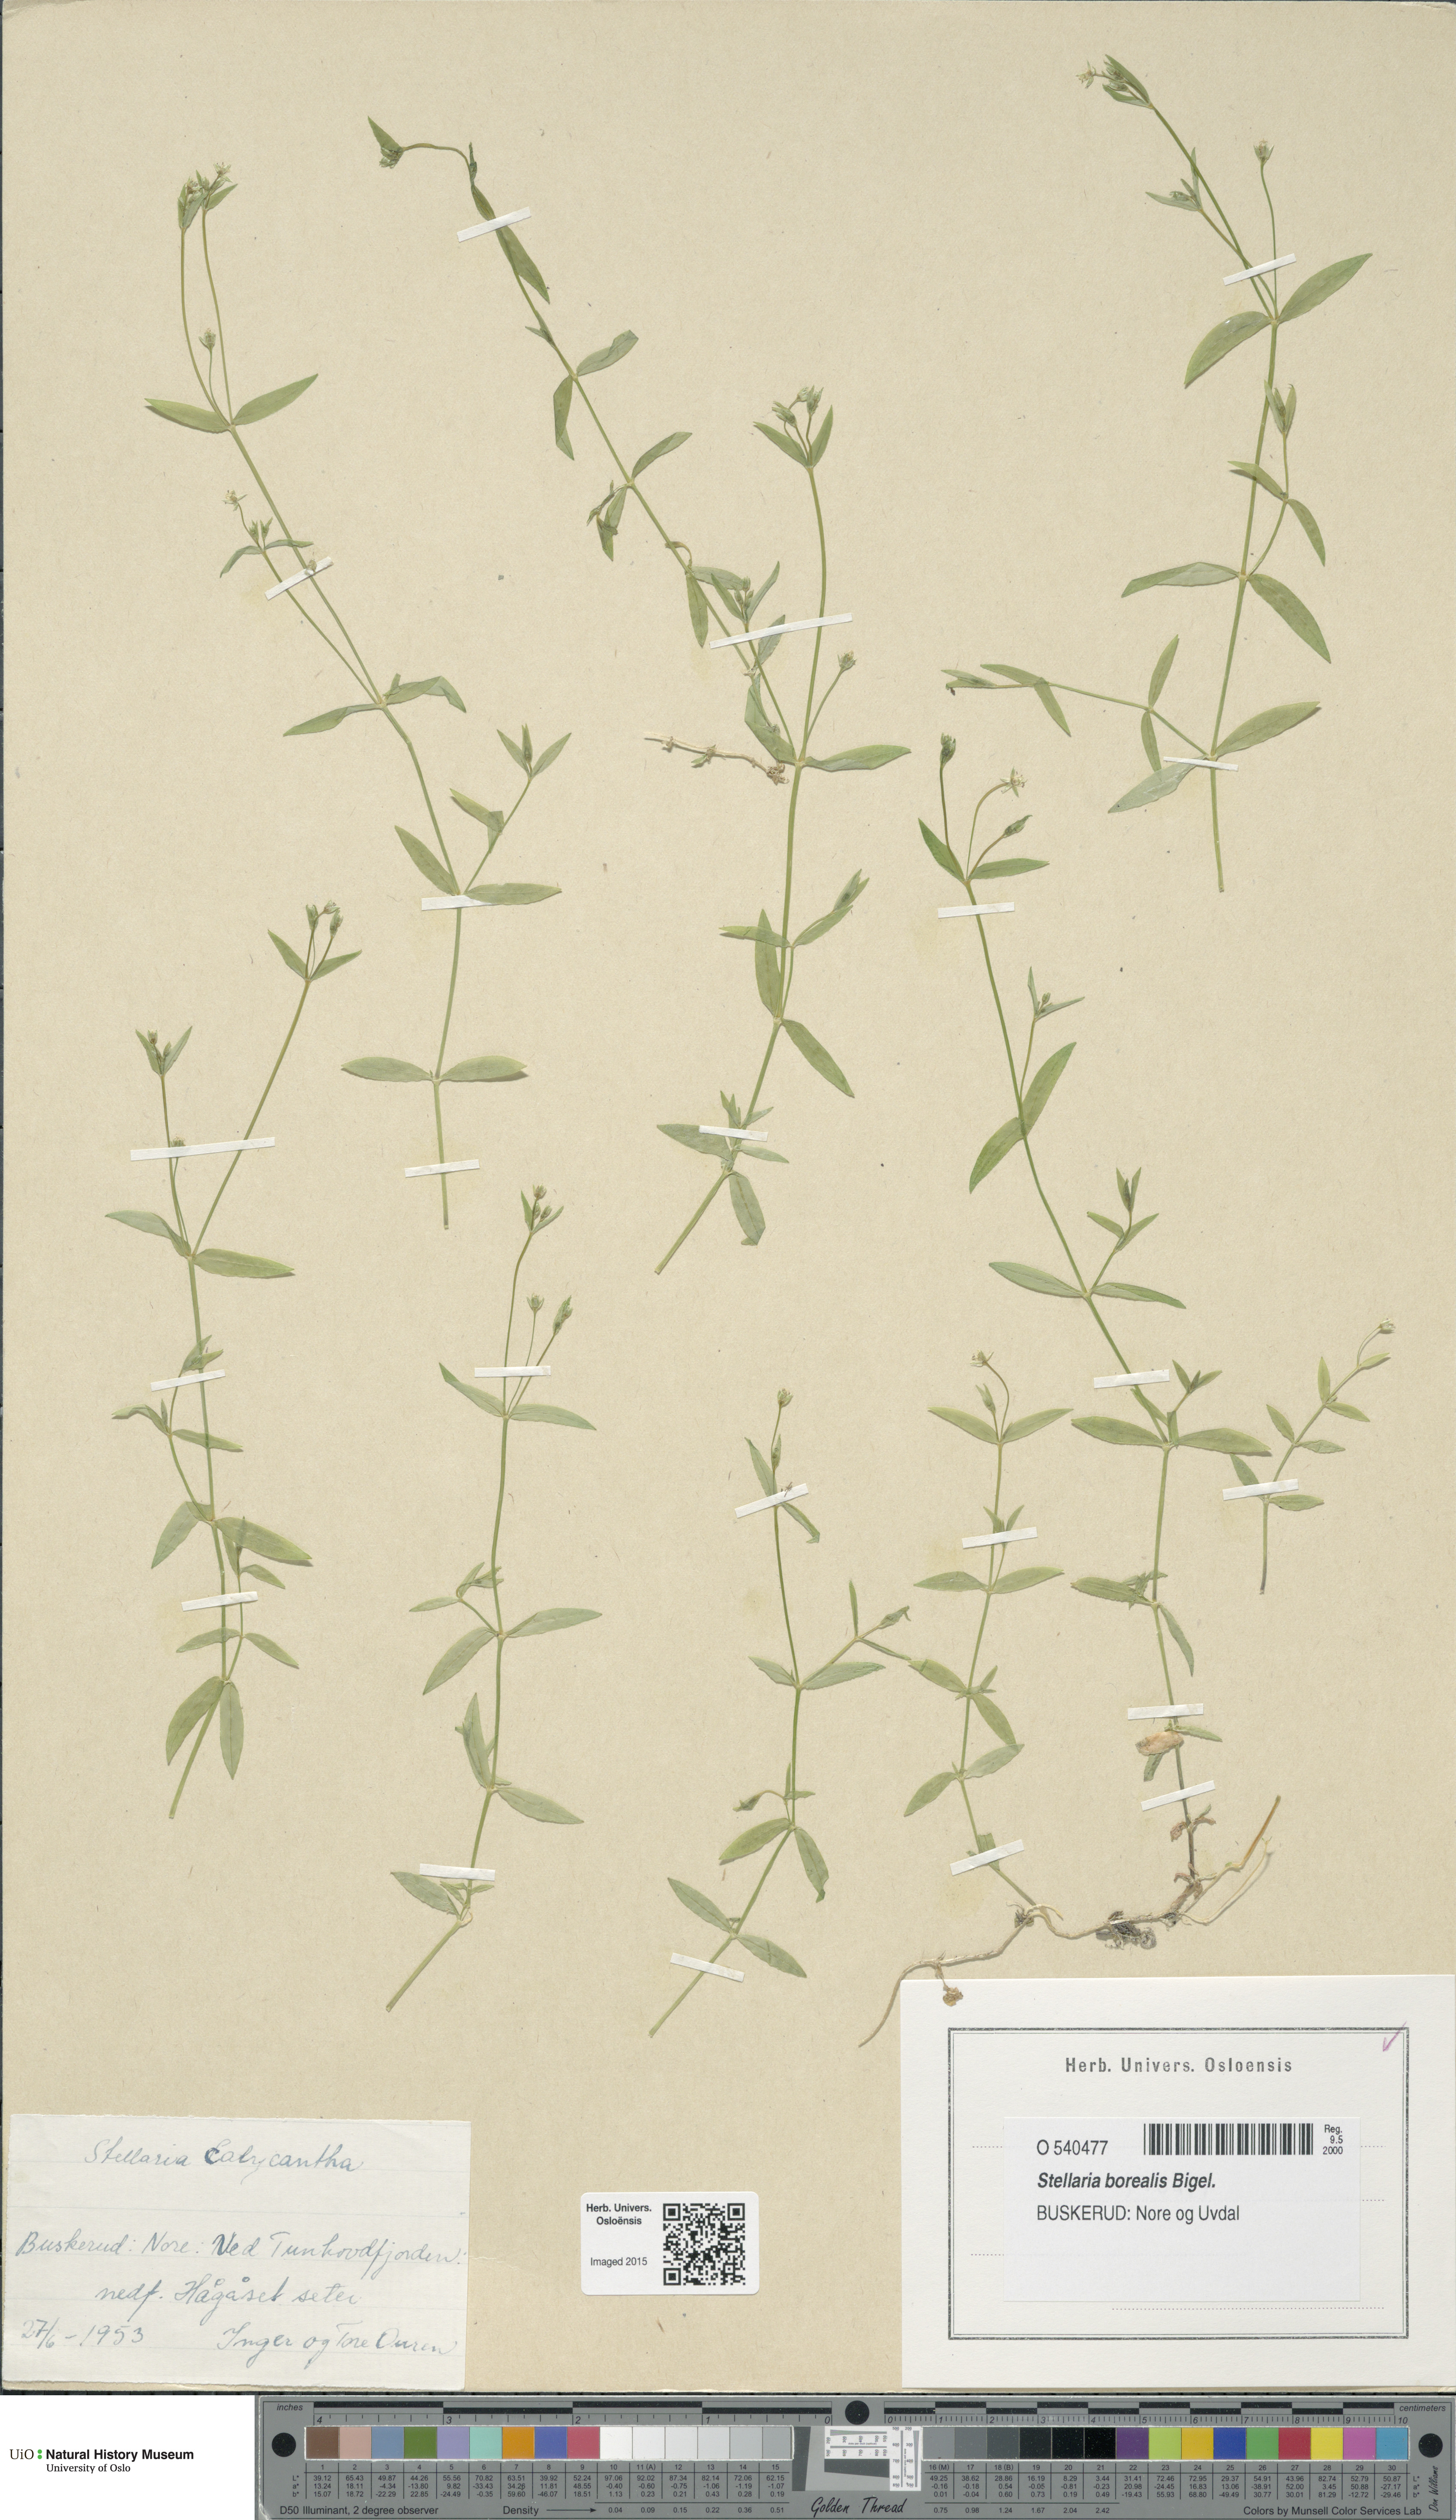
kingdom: Plantae
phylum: Tracheophyta
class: Magnoliopsida
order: Caryophyllales
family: Caryophyllaceae
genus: Stellaria
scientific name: Stellaria borealis
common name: Boreal starwort
